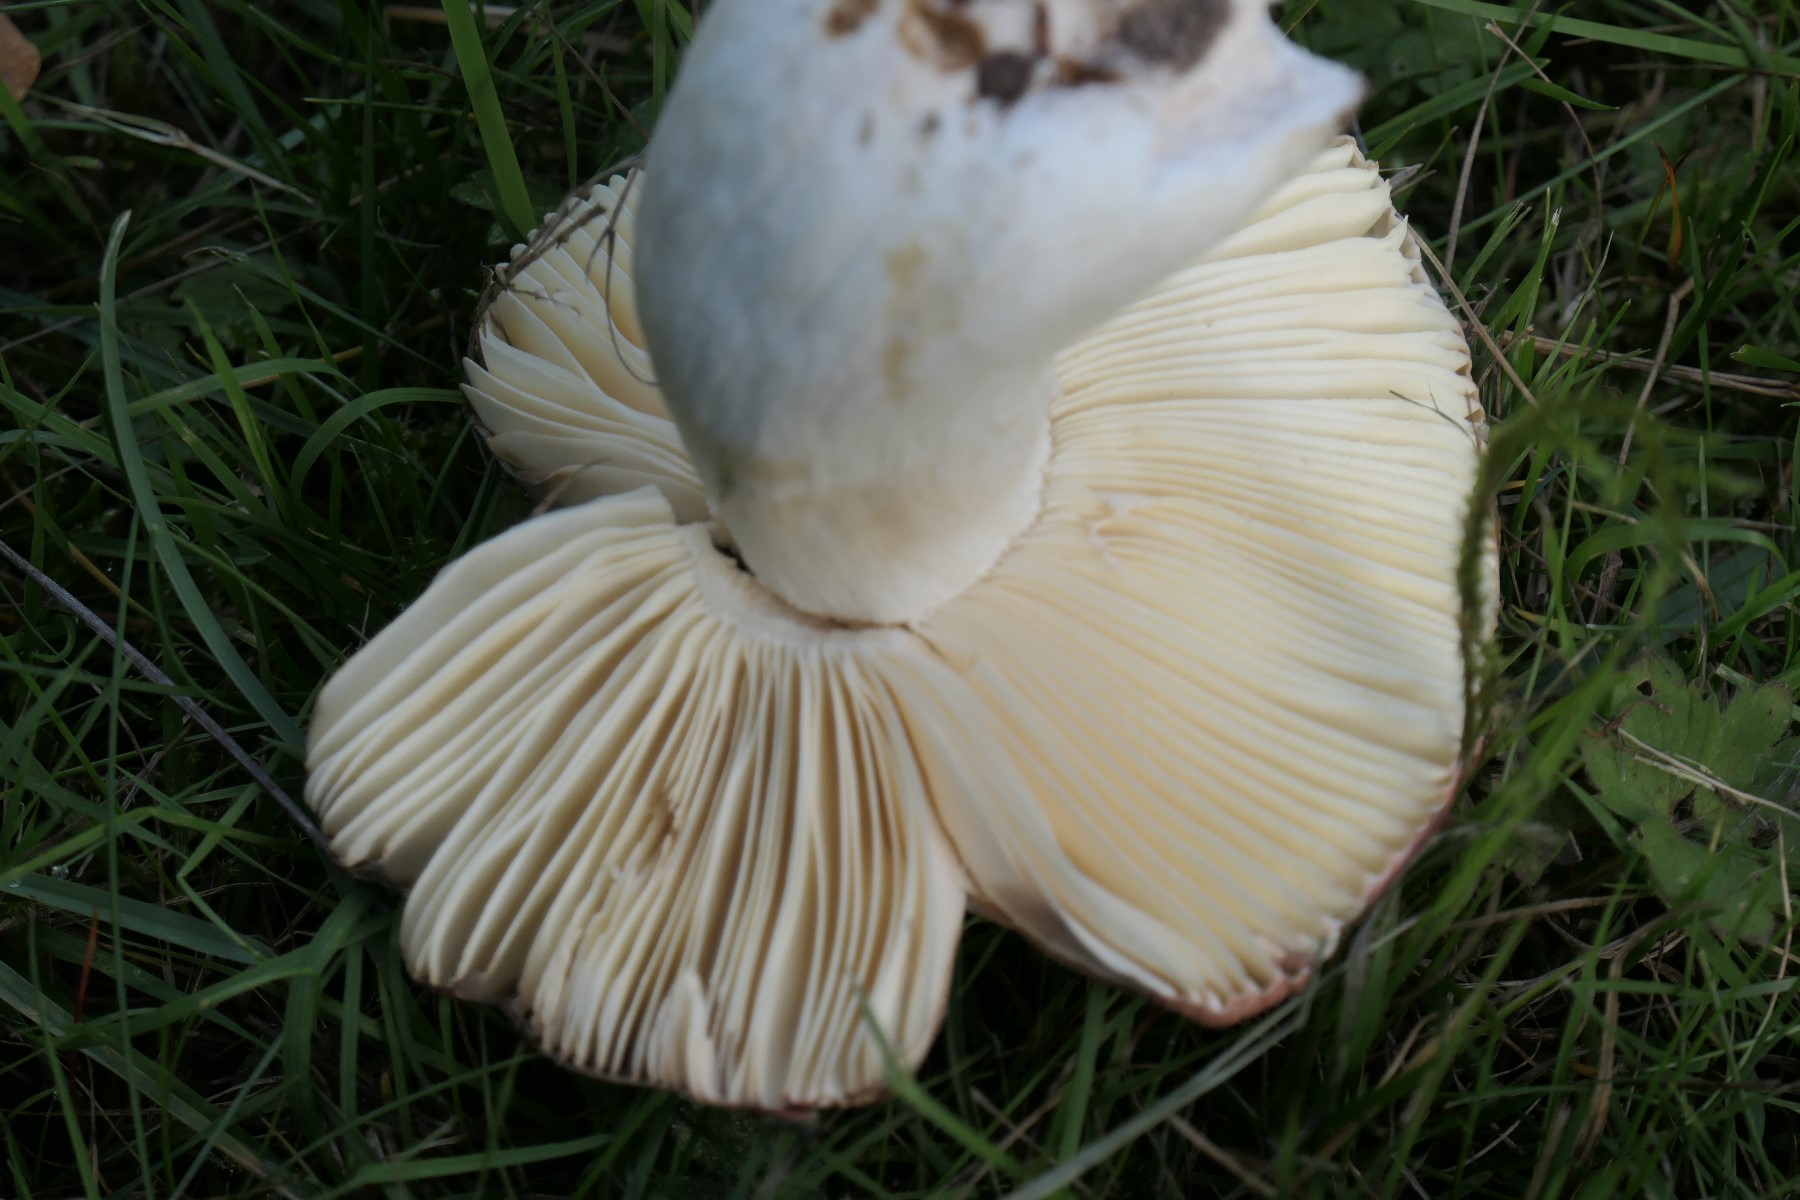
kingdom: Fungi
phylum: Basidiomycota
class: Agaricomycetes
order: Russulales
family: Russulaceae
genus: Russula
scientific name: Russula graveolens
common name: bugtet skørhat
